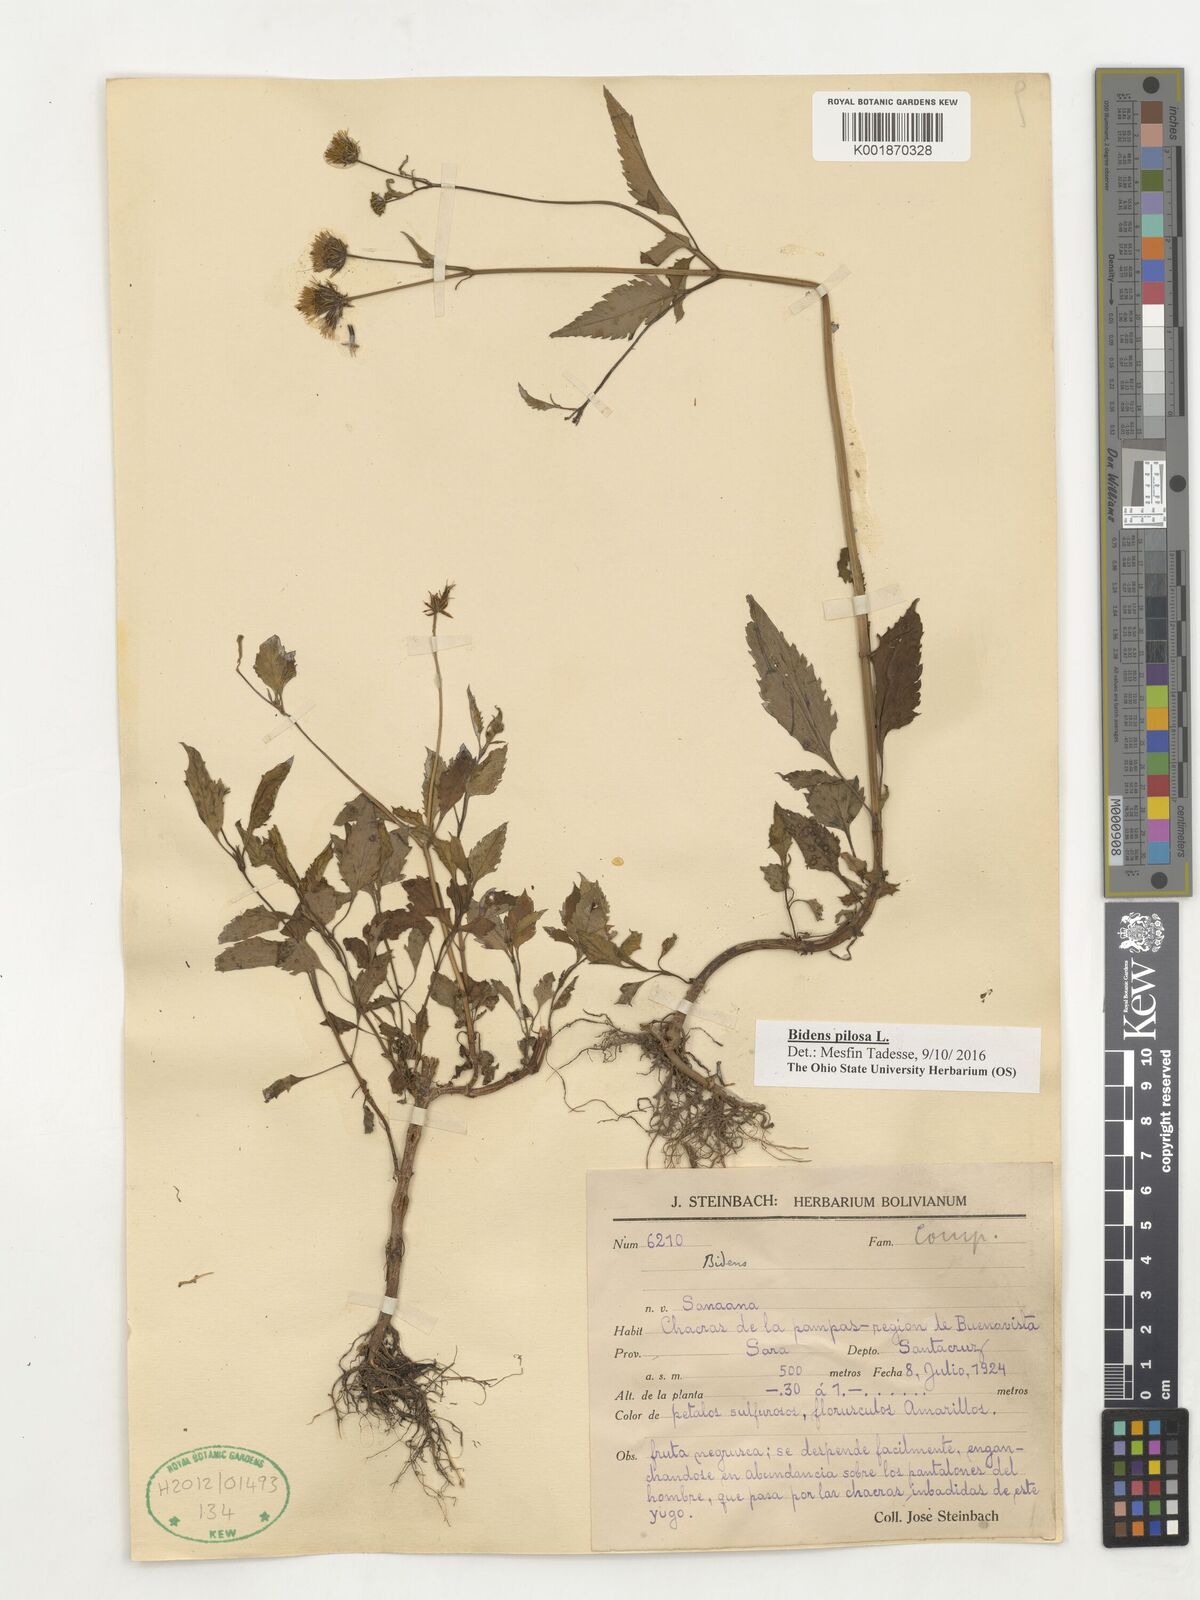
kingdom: Plantae
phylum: Tracheophyta
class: Magnoliopsida
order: Asterales
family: Asteraceae
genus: Bidens
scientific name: Bidens pilosa
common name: Black-jack
